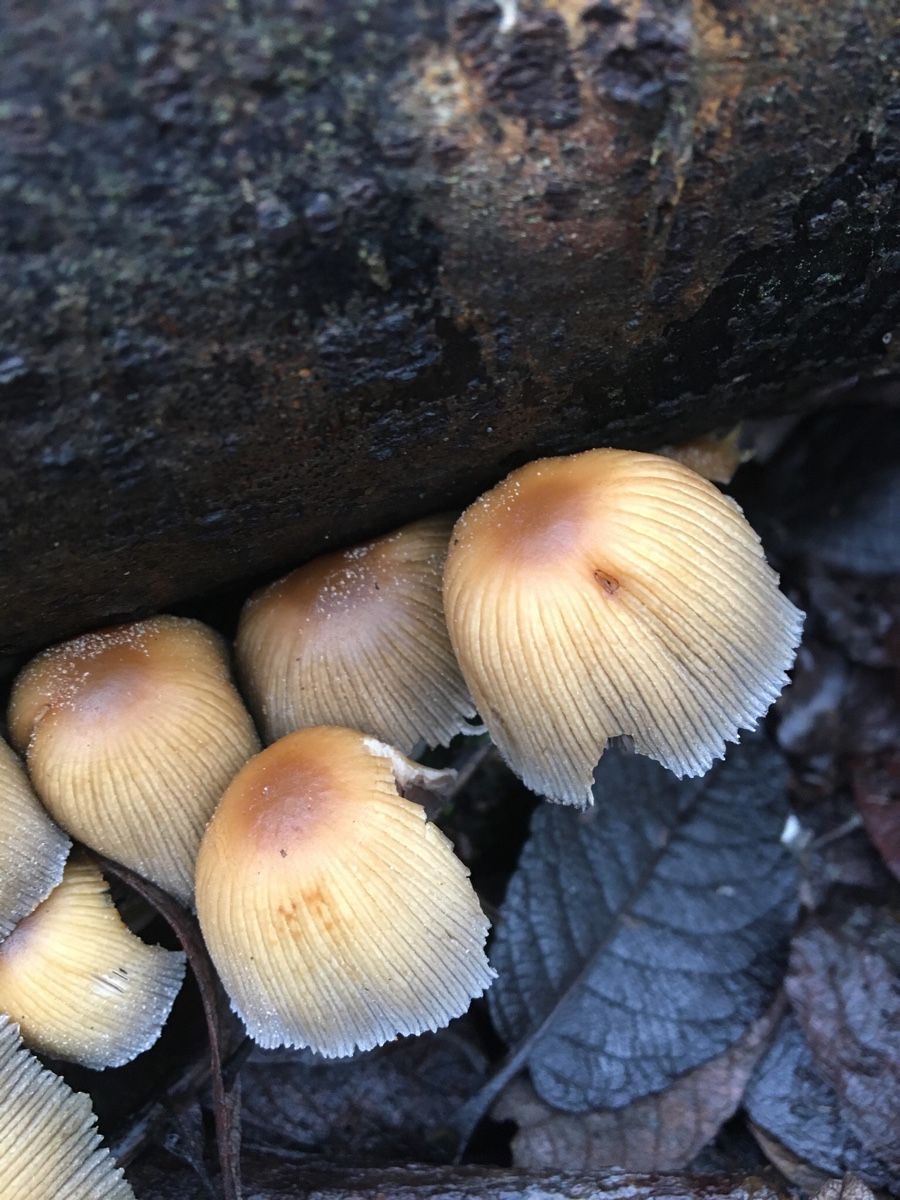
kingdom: Fungi
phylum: Basidiomycota
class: Agaricomycetes
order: Agaricales
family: Psathyrellaceae
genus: Coprinellus
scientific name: Coprinellus micaceus
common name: glimmer-blækhat
